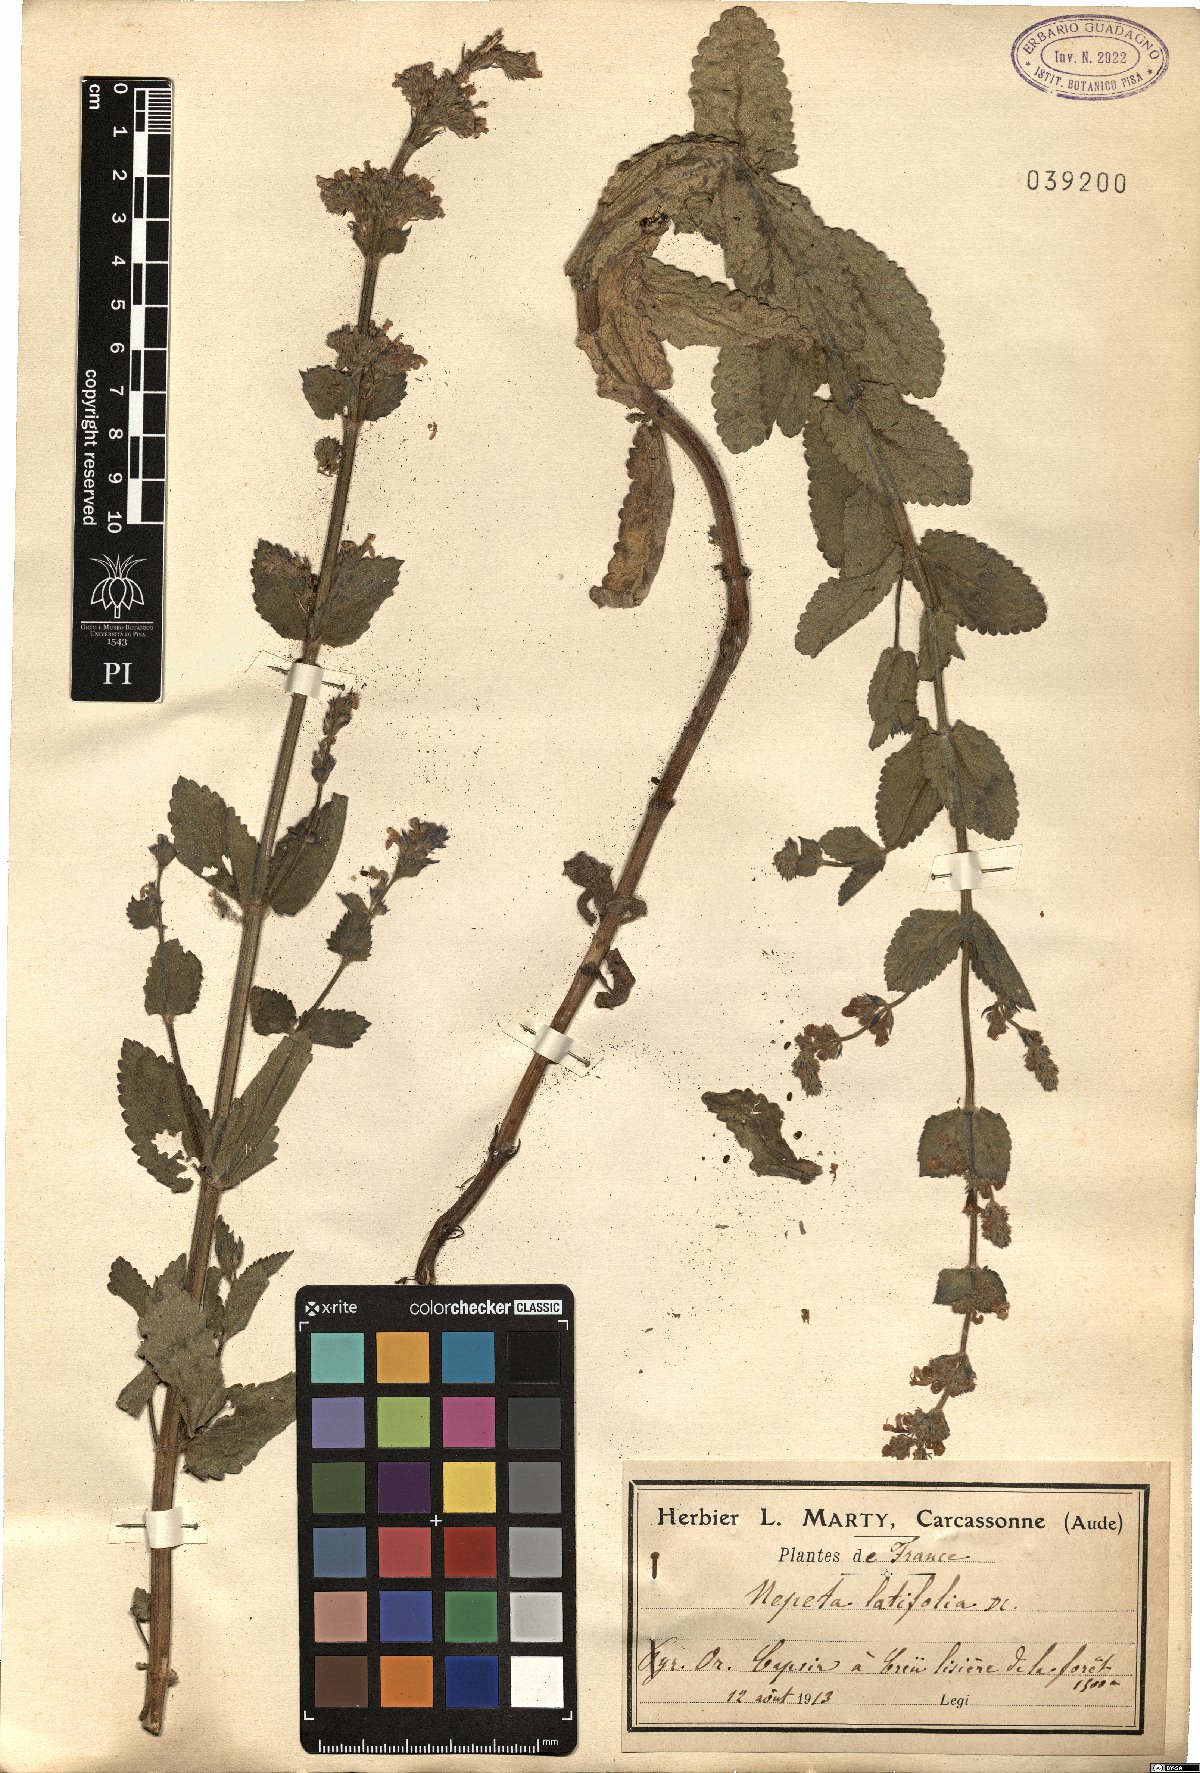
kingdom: Plantae
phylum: Tracheophyta
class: Magnoliopsida
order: Lamiales
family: Lamiaceae
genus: Nepeta
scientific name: Nepeta latifolia
